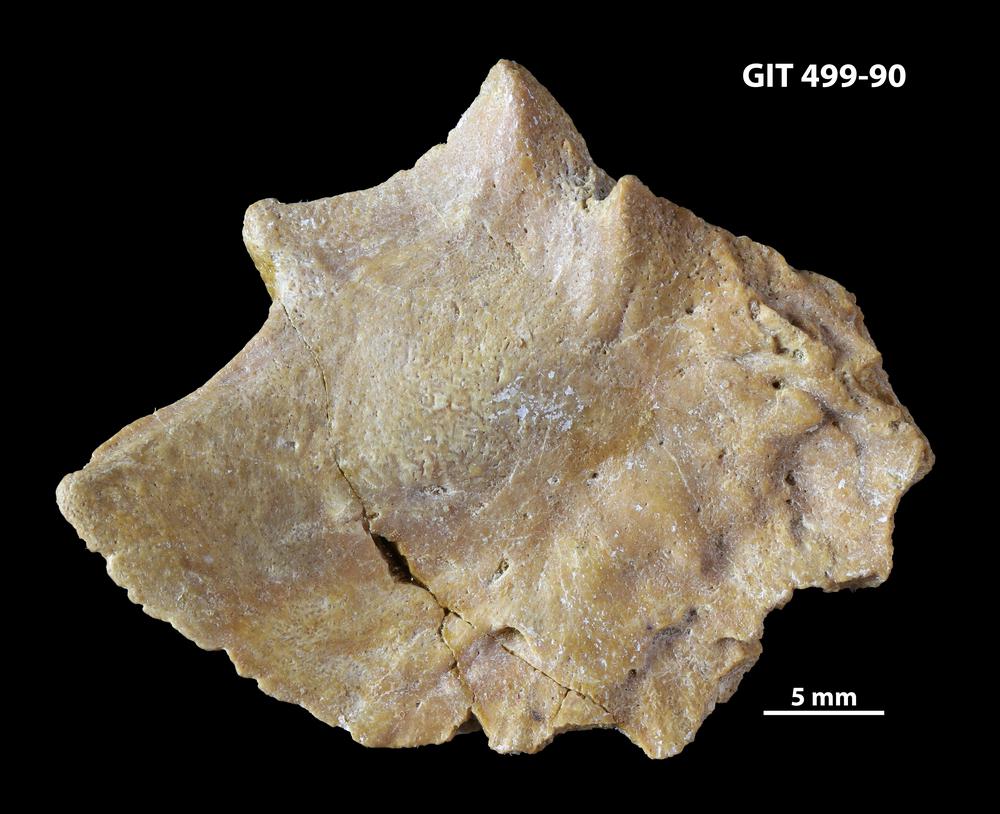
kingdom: Animalia
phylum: Chordata
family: Holoptychiidae
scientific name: Holoptychiidae
